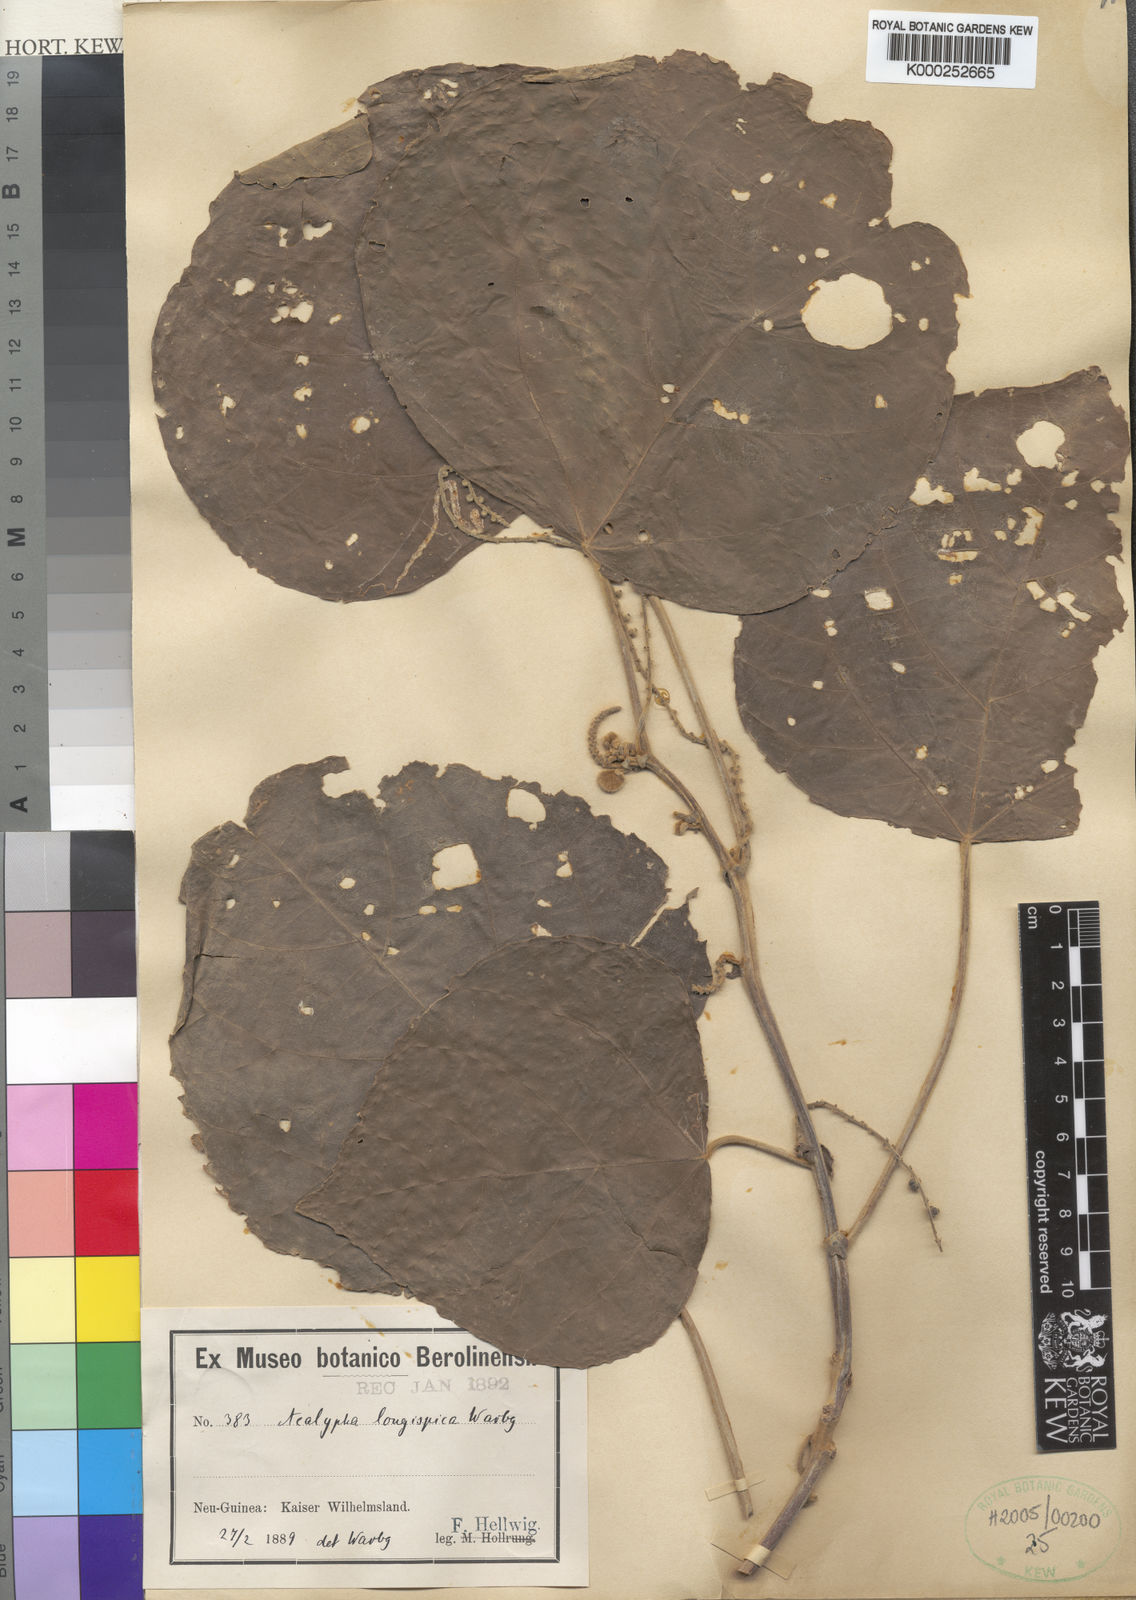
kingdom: Plantae
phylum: Tracheophyta
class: Magnoliopsida
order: Malpighiales
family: Euphorbiaceae
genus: Acalypha
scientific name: Acalypha longispica
